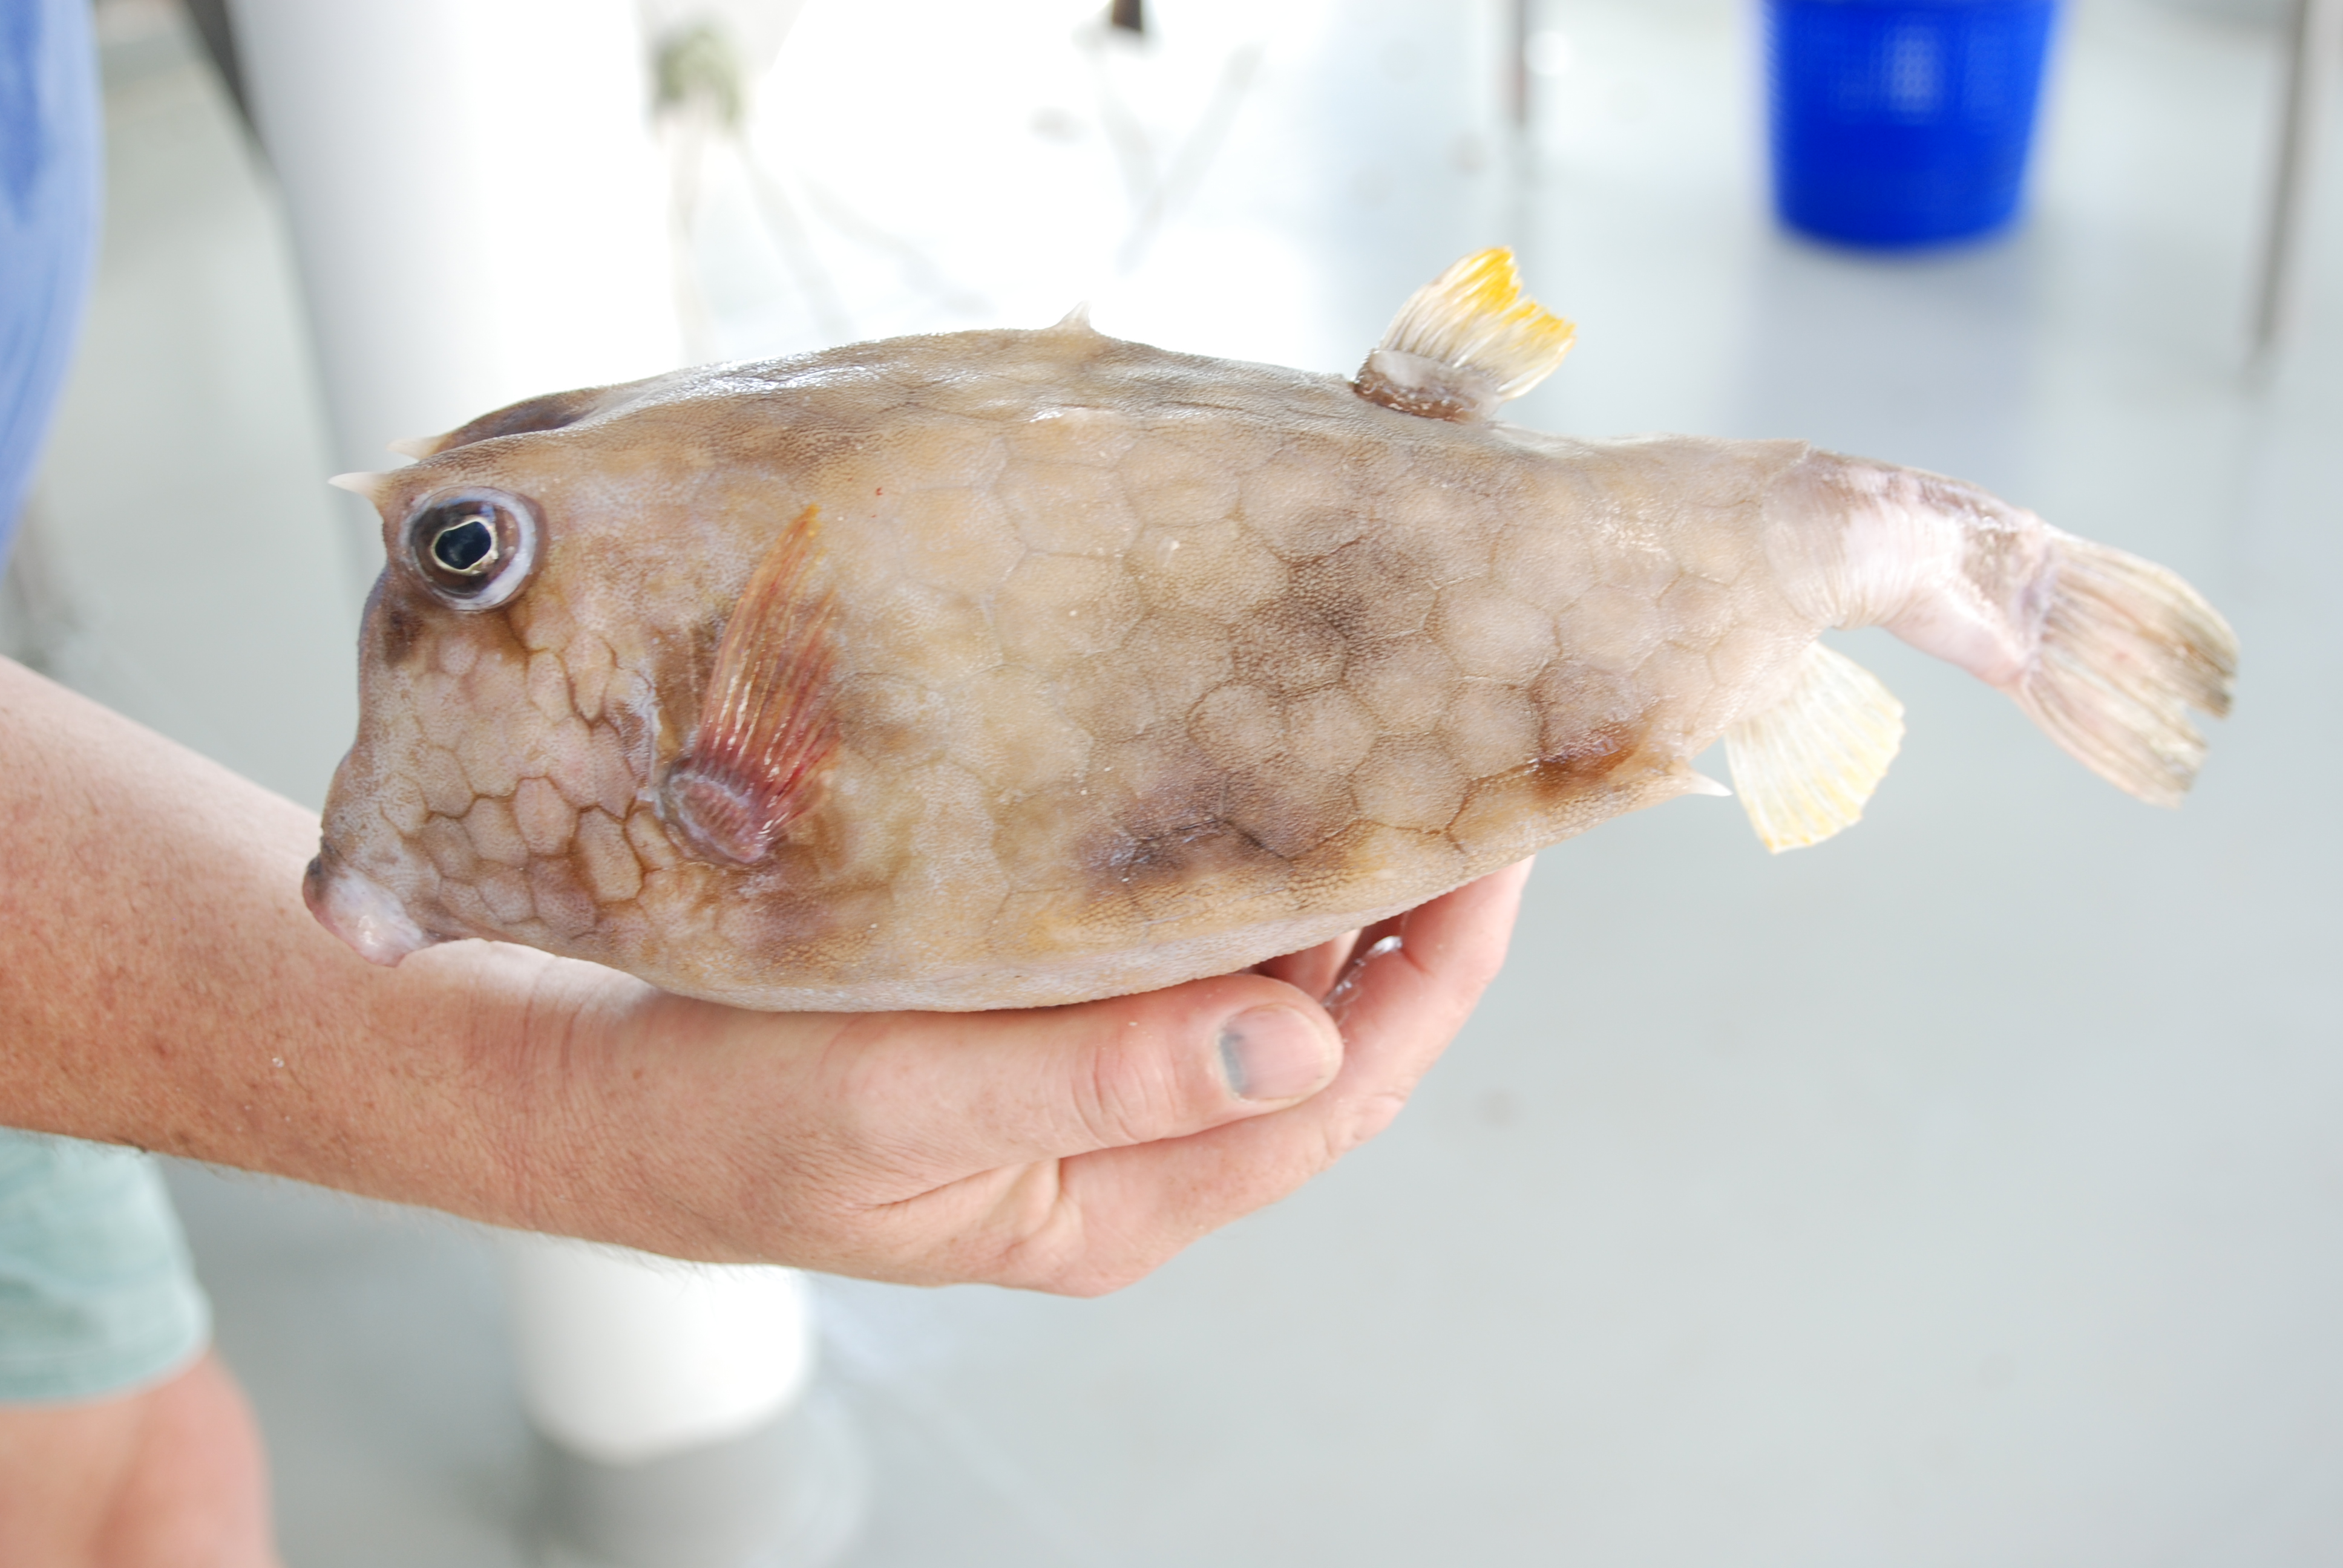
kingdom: Animalia
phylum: Chordata
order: Tetraodontiformes
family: Ostraciidae
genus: Lactoria
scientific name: Lactoria diaphana
